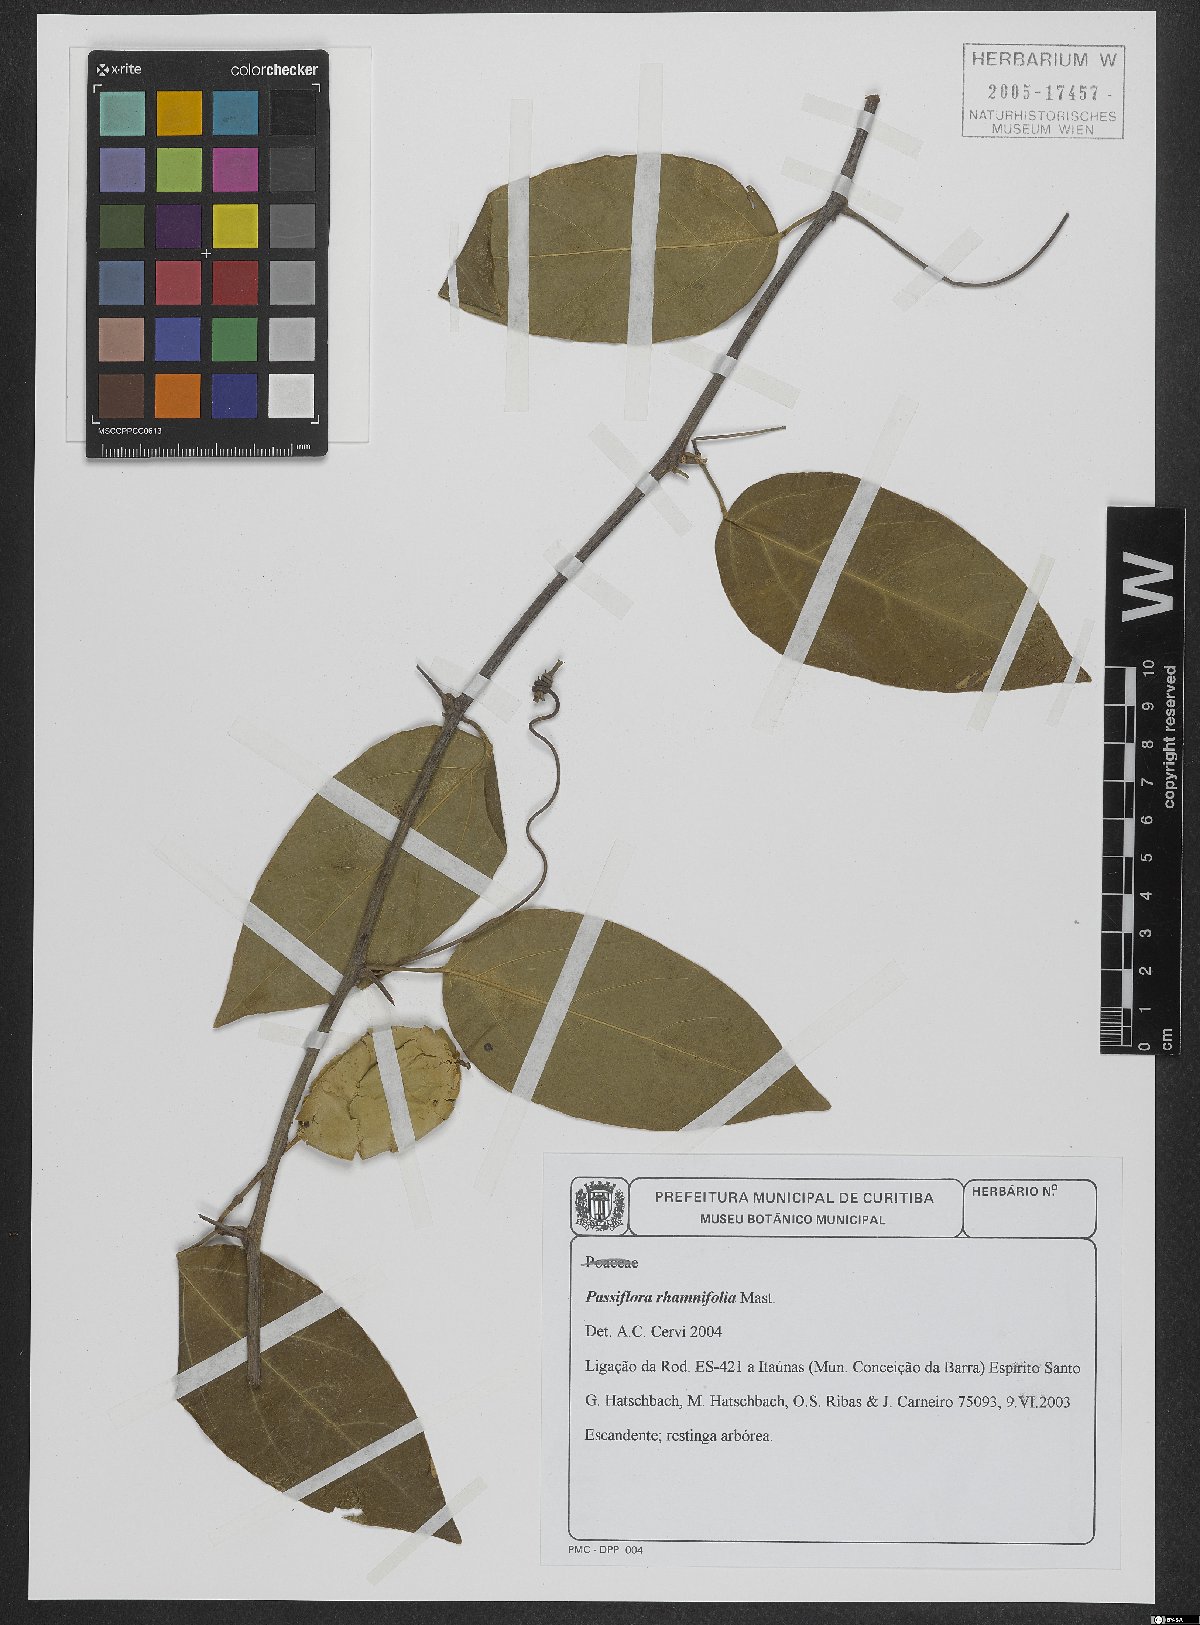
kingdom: Plantae
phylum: Tracheophyta
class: Magnoliopsida
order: Malpighiales
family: Passifloraceae
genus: Passiflora
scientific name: Passiflora rhamnifolia
